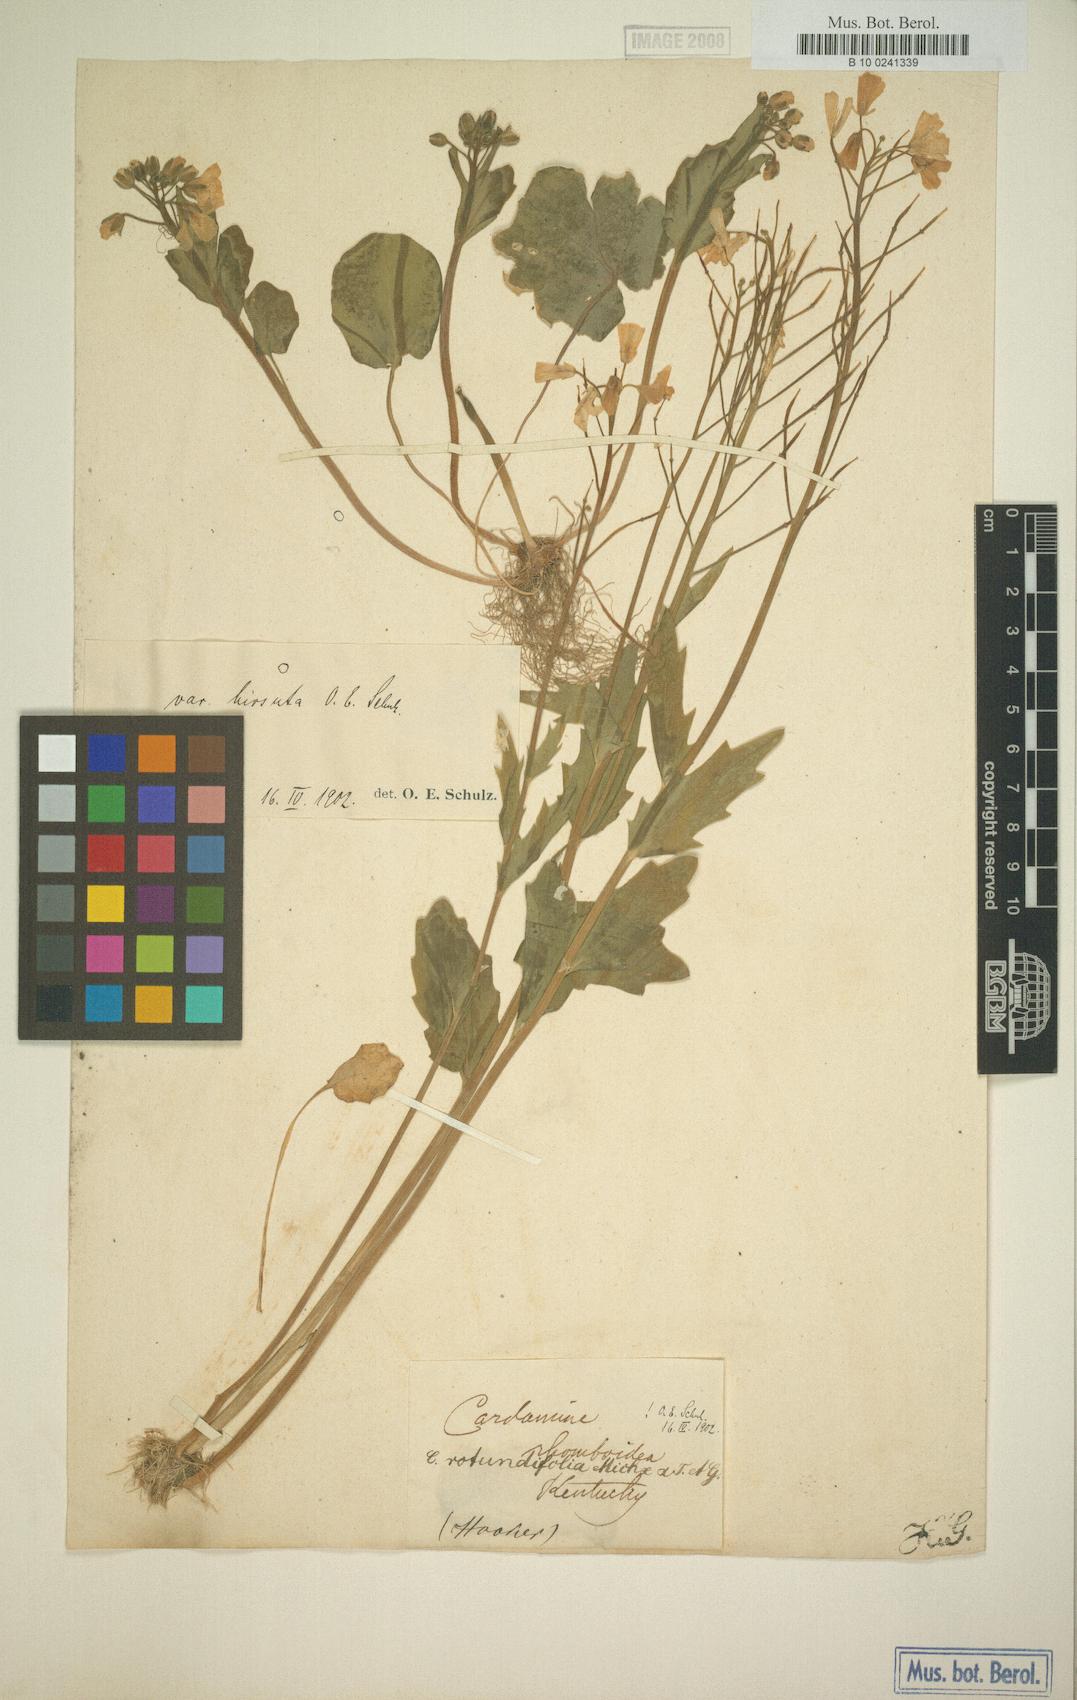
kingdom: Plantae
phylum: Tracheophyta
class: Magnoliopsida
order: Brassicales
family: Brassicaceae
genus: Cardamine
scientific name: Cardamine bulbosa
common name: Spring cress
